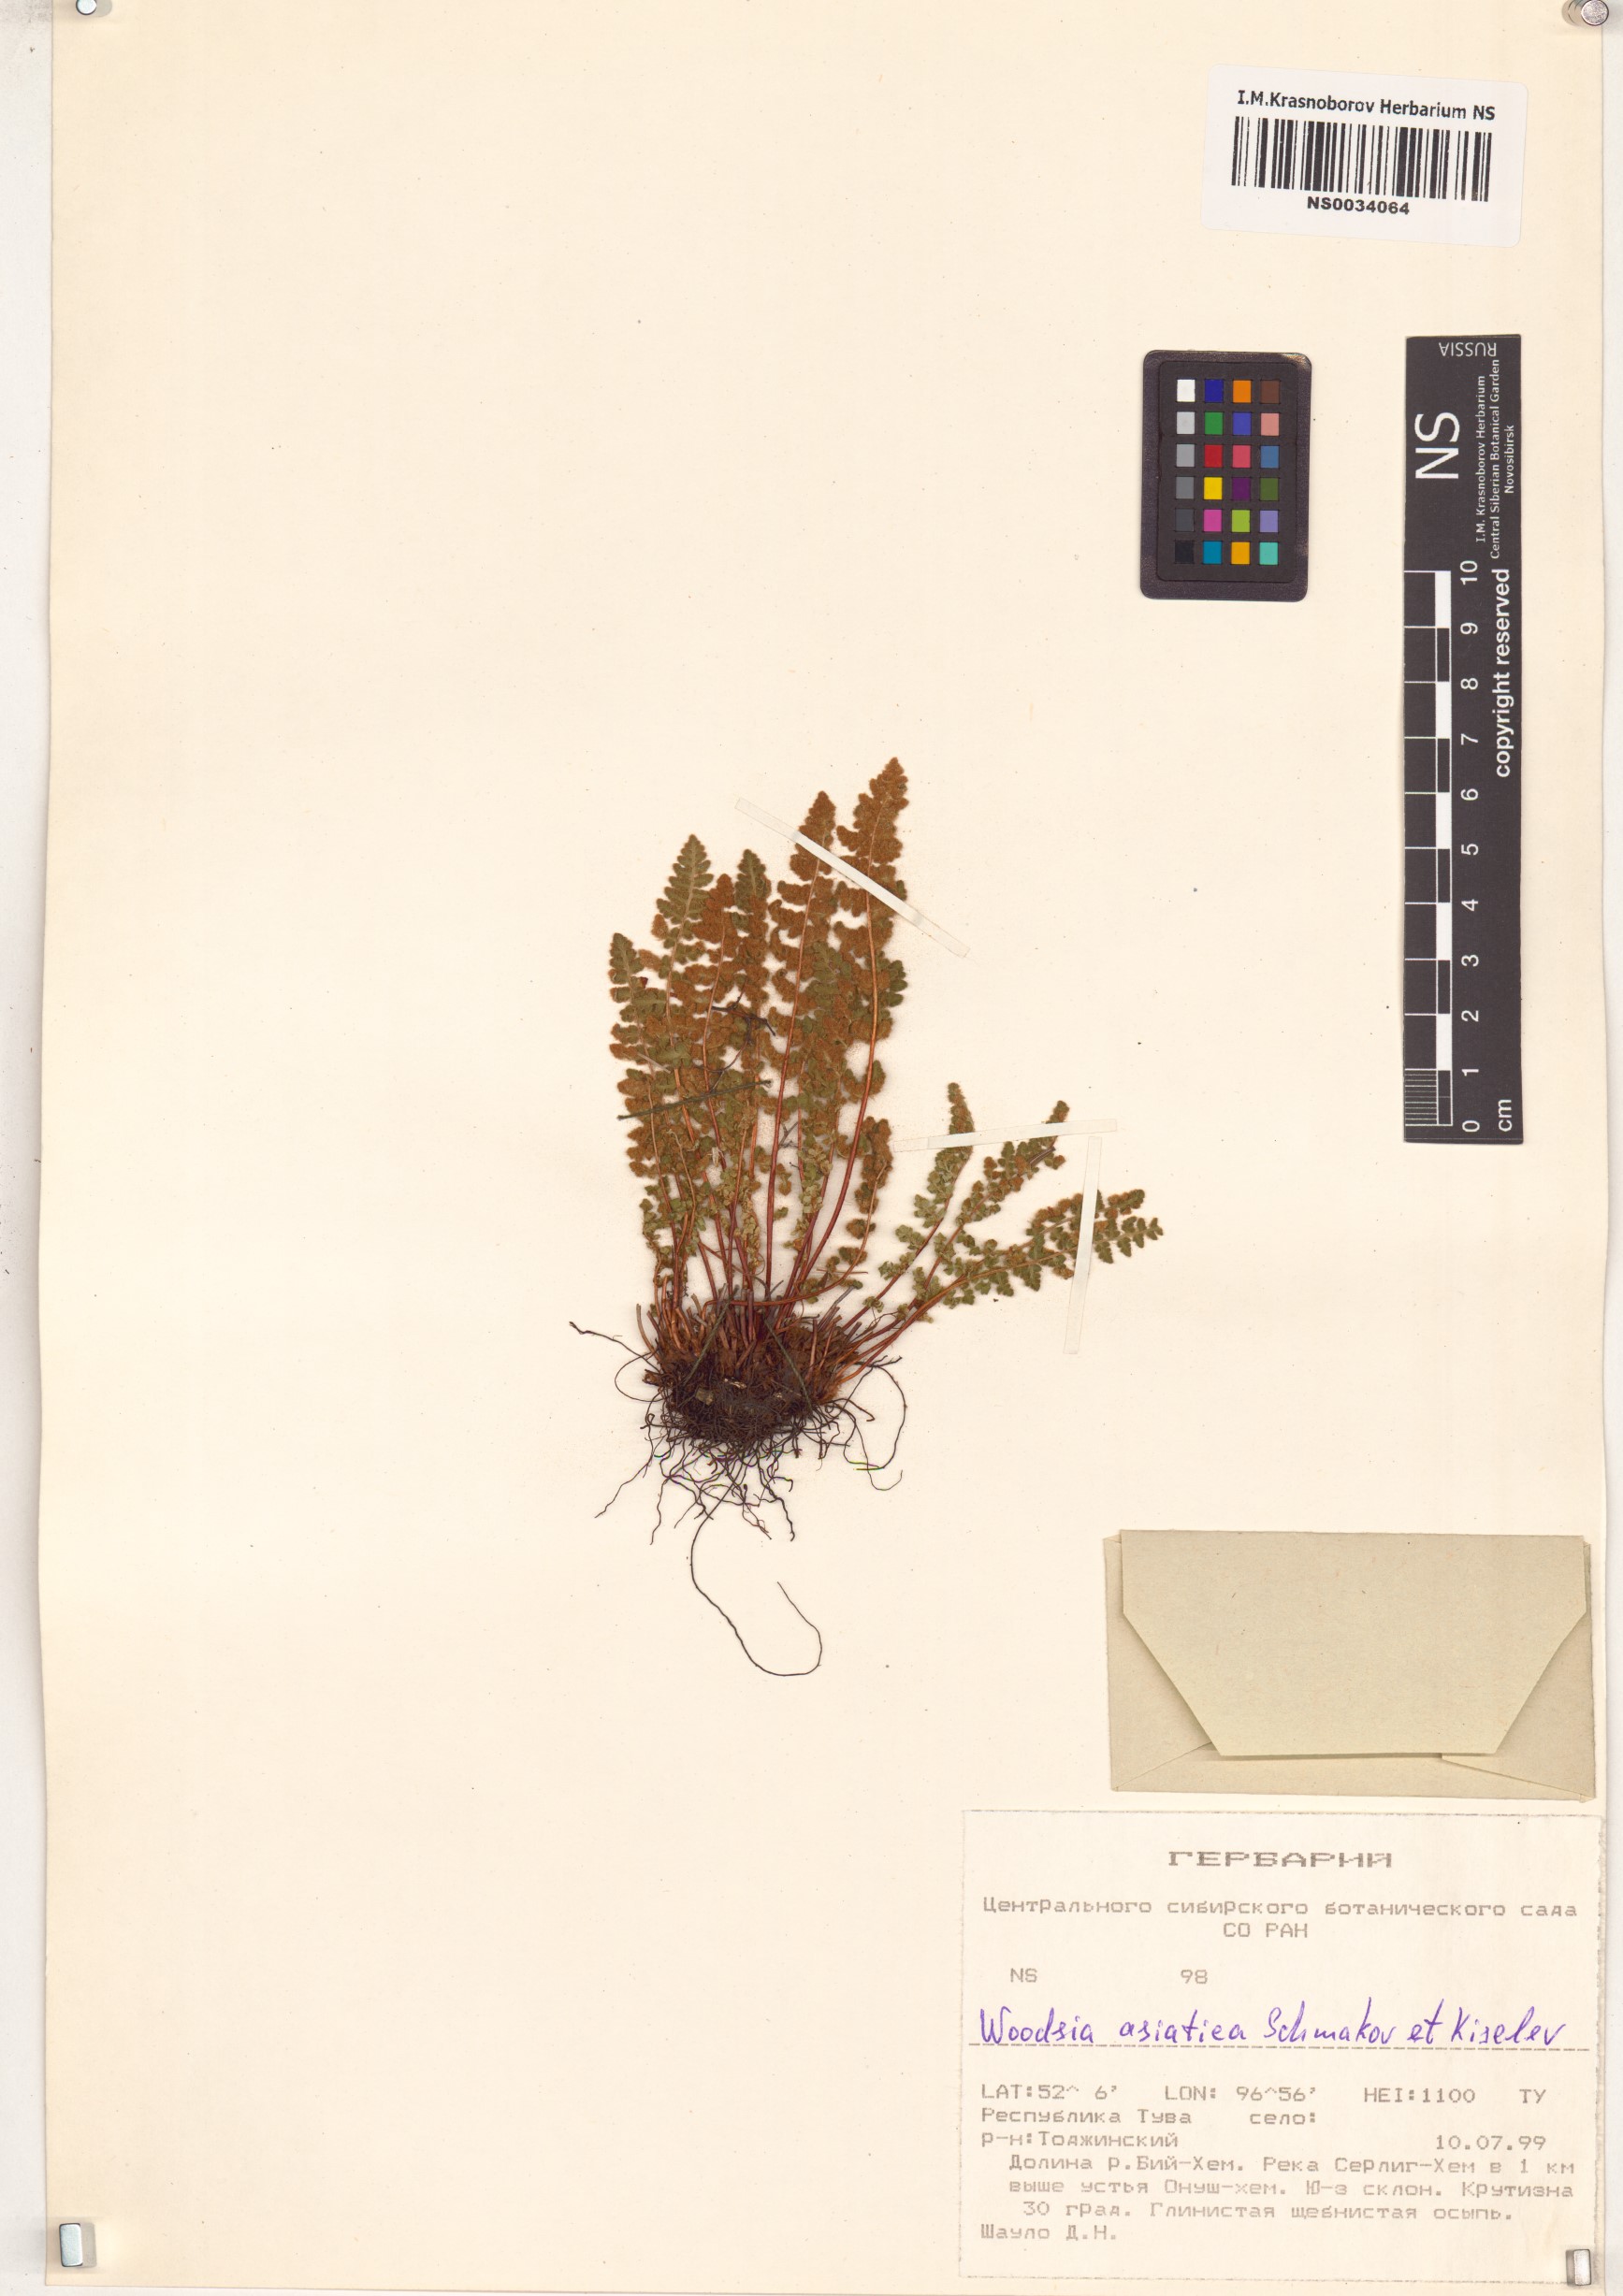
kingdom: Plantae
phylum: Tracheophyta
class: Polypodiopsida
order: Polypodiales
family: Woodsiaceae
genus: Woodsia
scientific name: Woodsia asiatica
